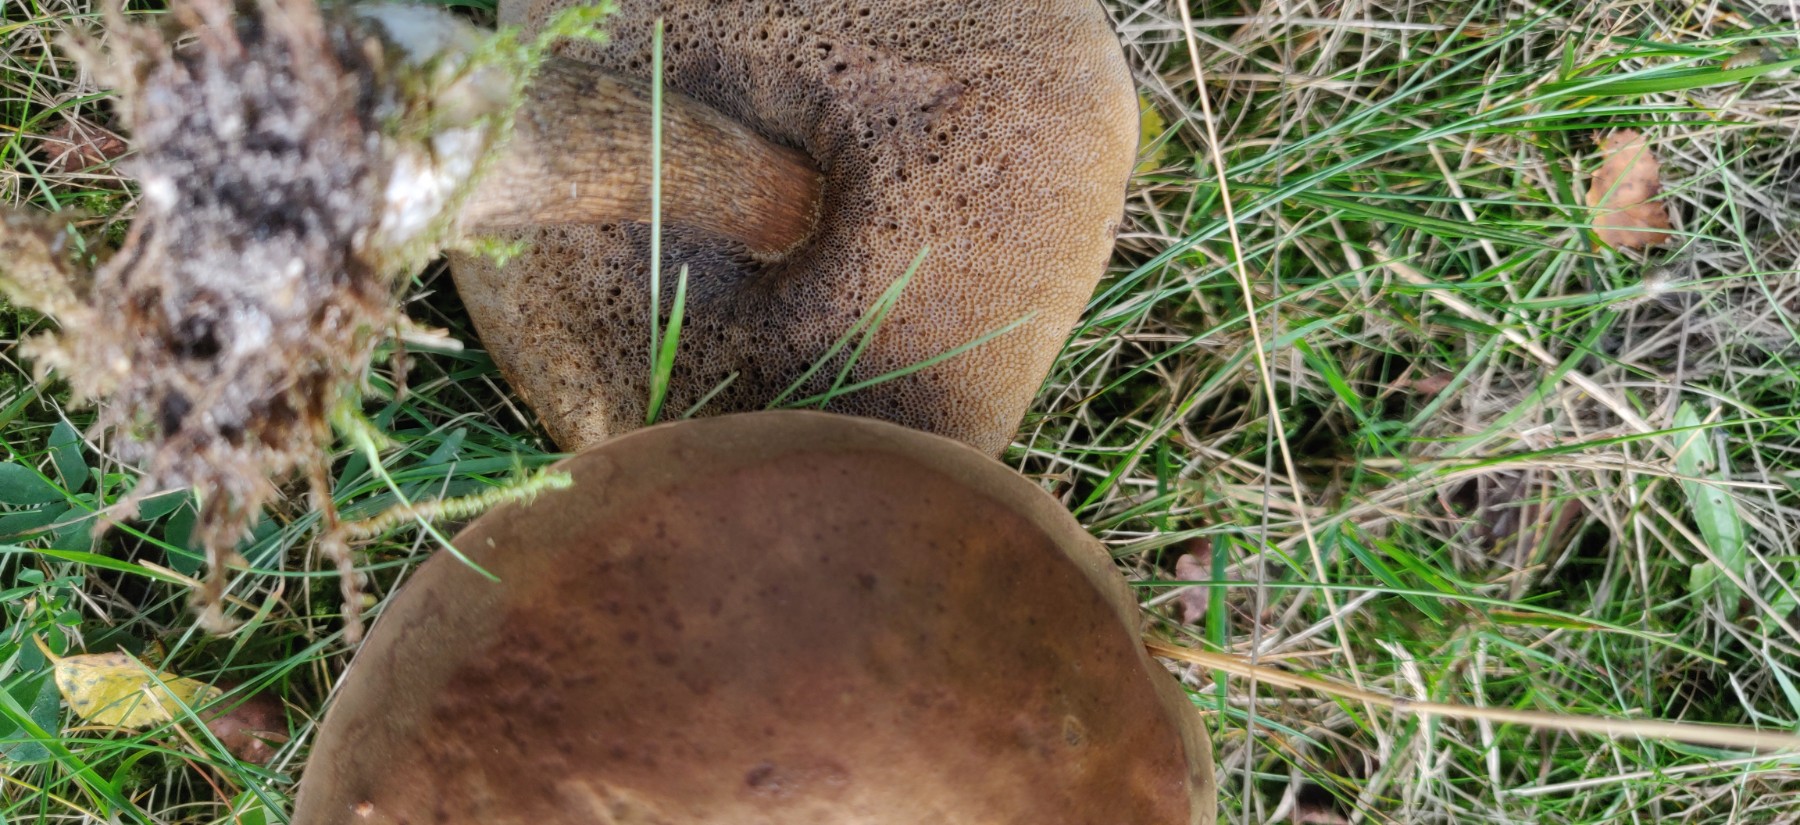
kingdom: Fungi
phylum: Basidiomycota
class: Agaricomycetes
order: Boletales
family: Boletaceae
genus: Leccinum
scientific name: Leccinum scabrum
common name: brun skælrørhat
